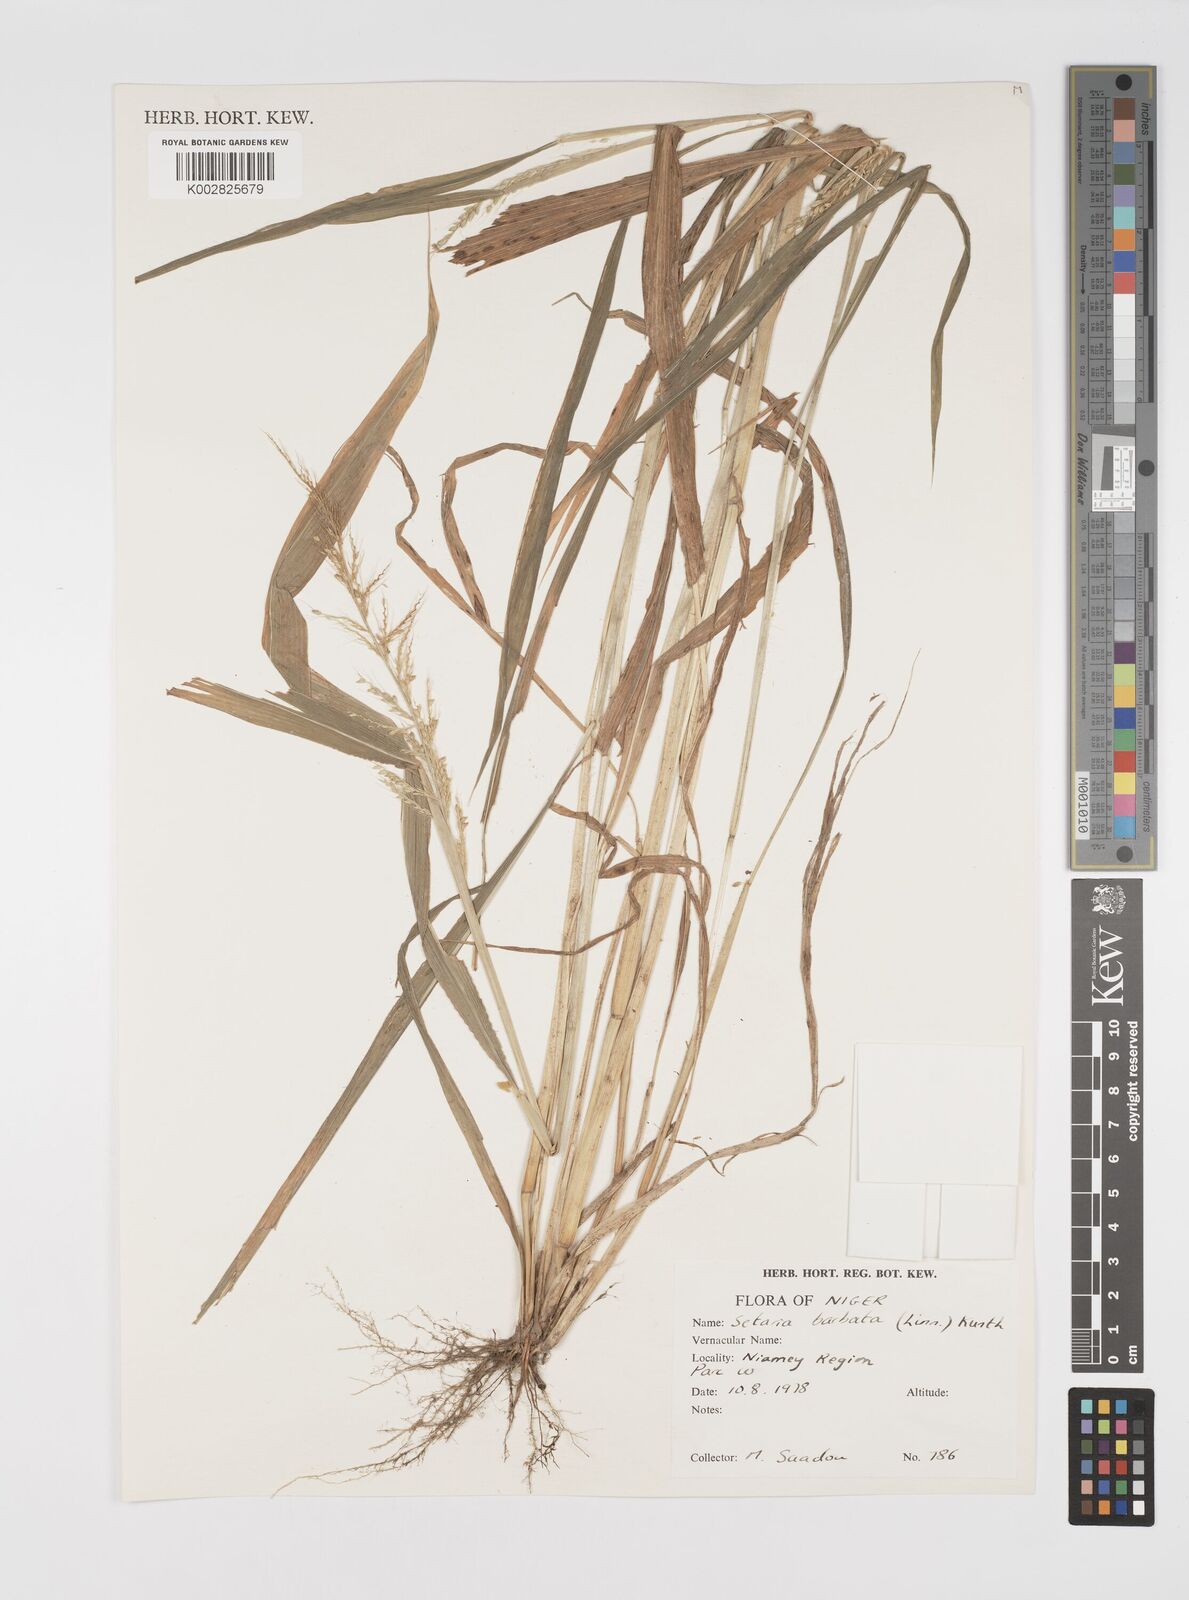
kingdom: Plantae
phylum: Tracheophyta
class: Liliopsida
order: Poales
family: Poaceae
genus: Setaria
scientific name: Setaria barbata
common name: East indian bristlegrass
